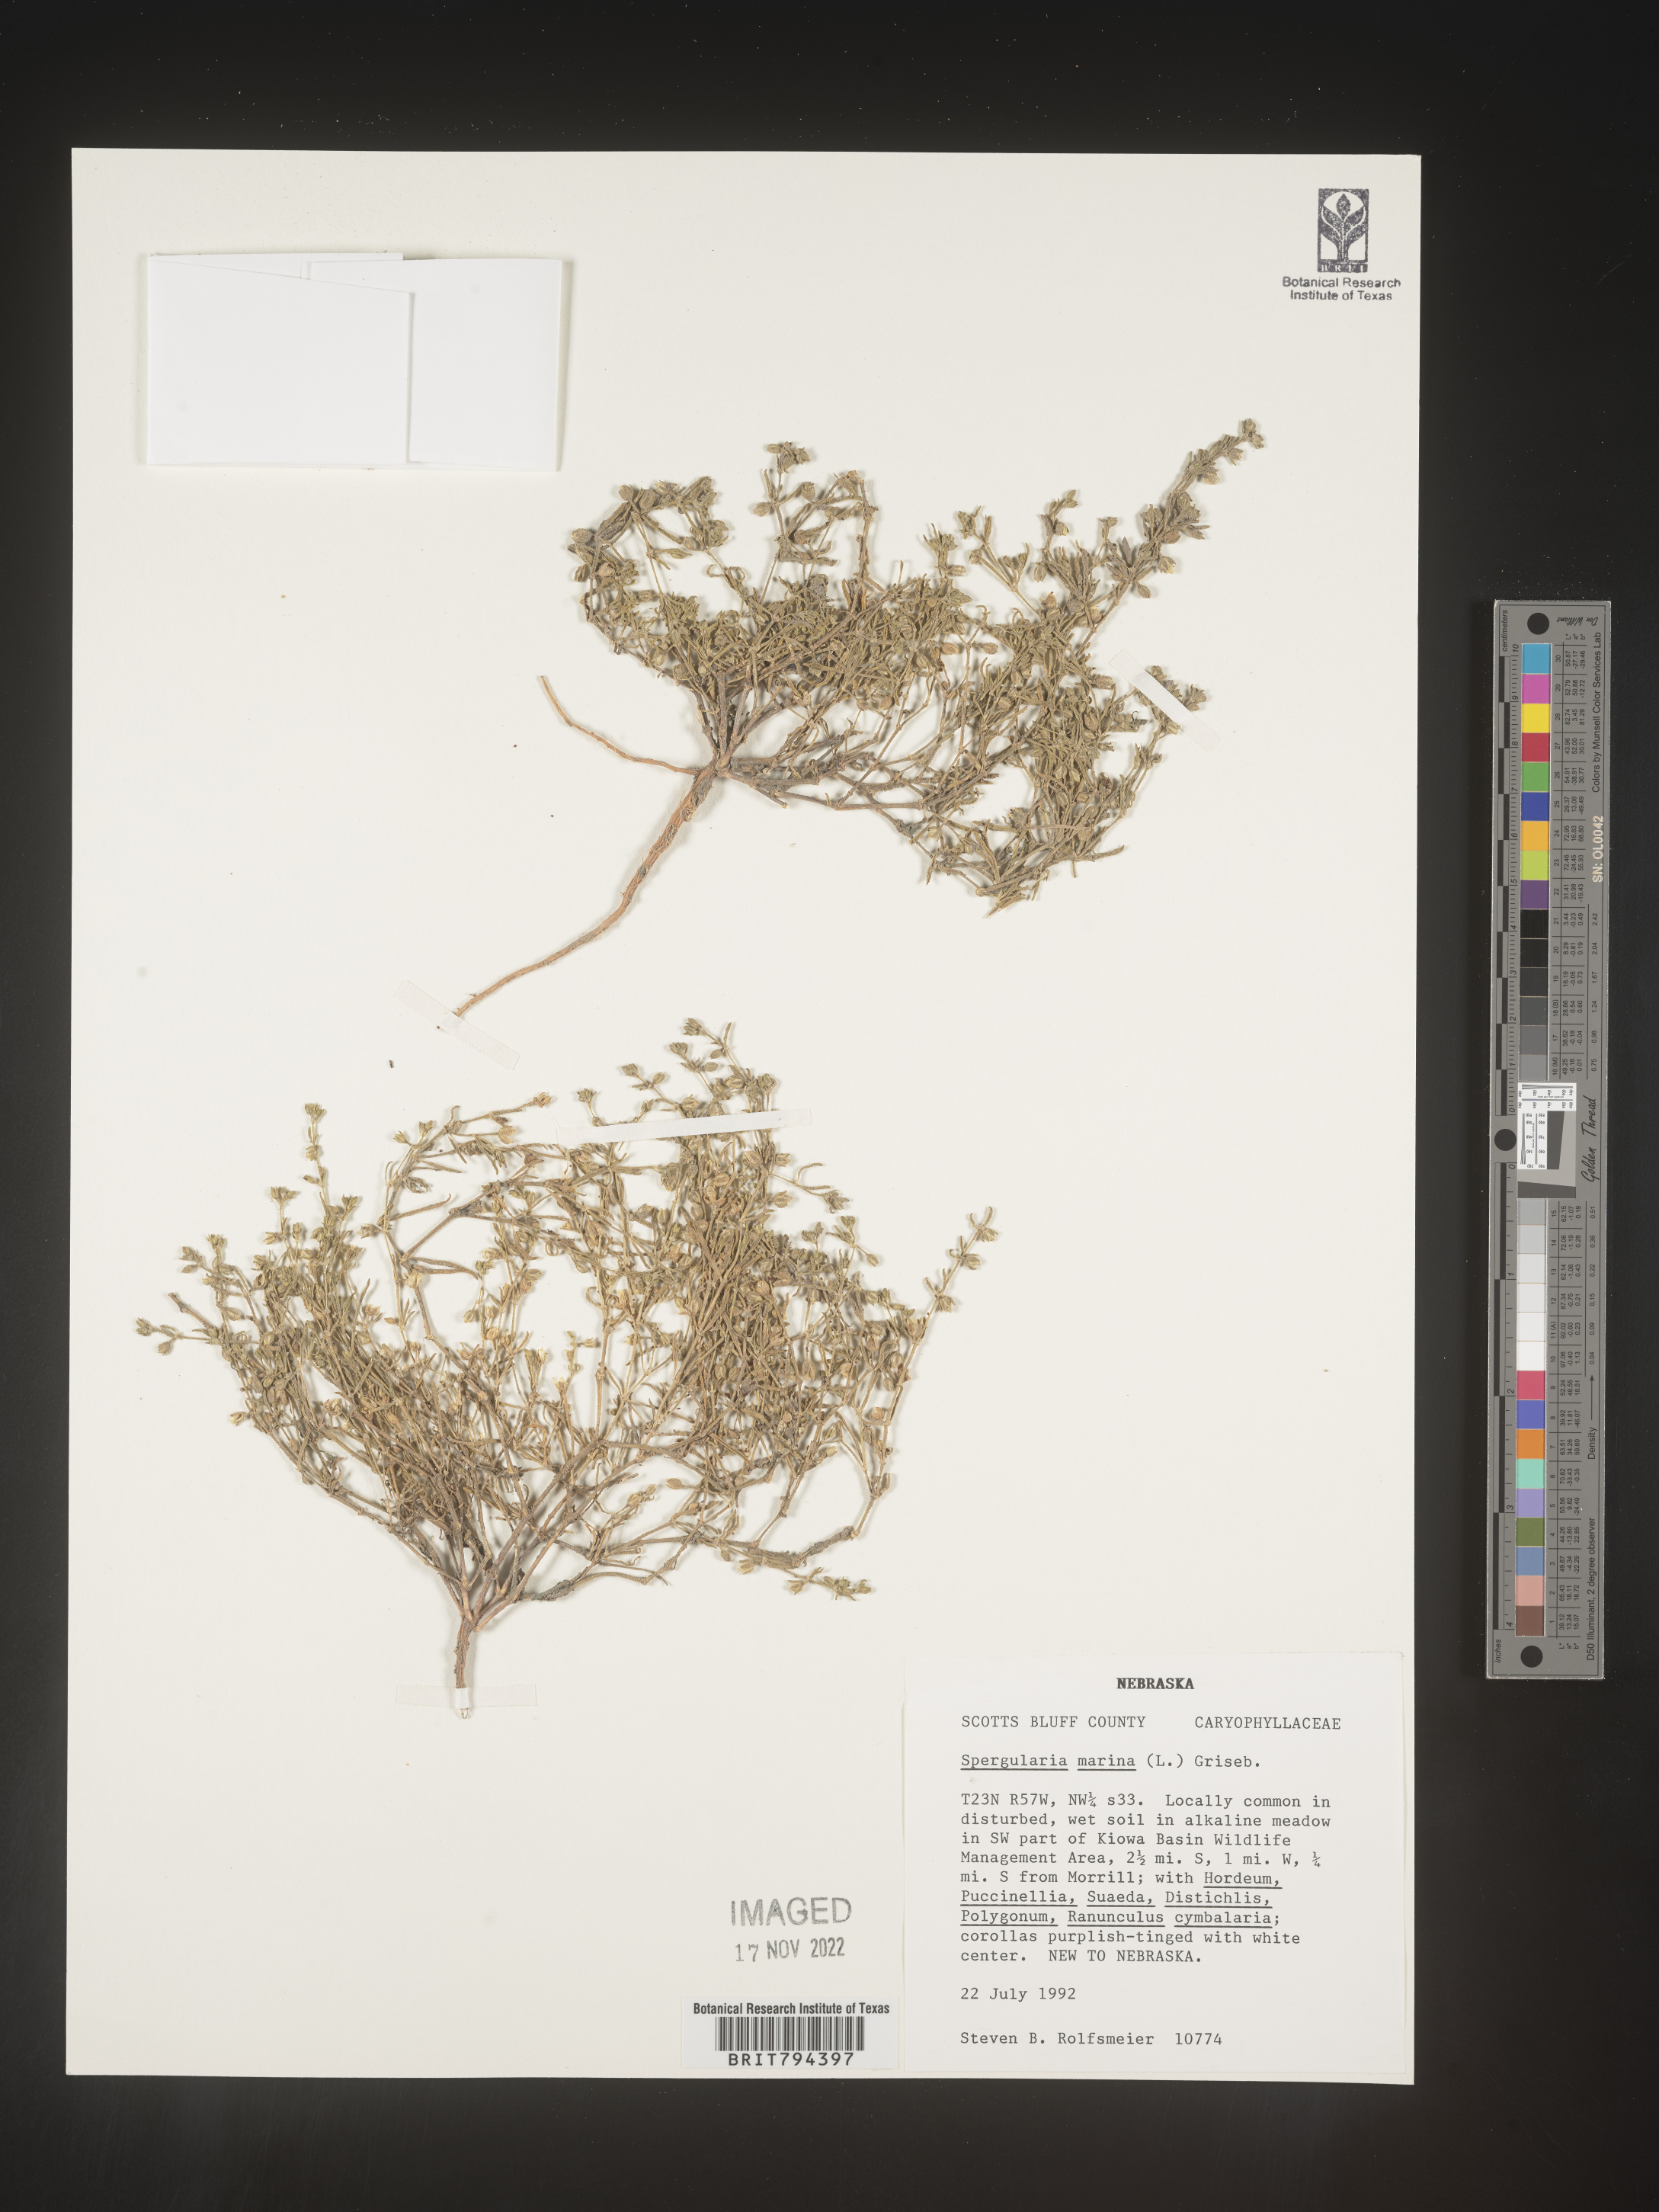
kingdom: Plantae
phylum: Tracheophyta
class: Magnoliopsida
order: Caryophyllales
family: Caryophyllaceae
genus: Spergularia
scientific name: Spergularia marina
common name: Lesser sea-spurrey
